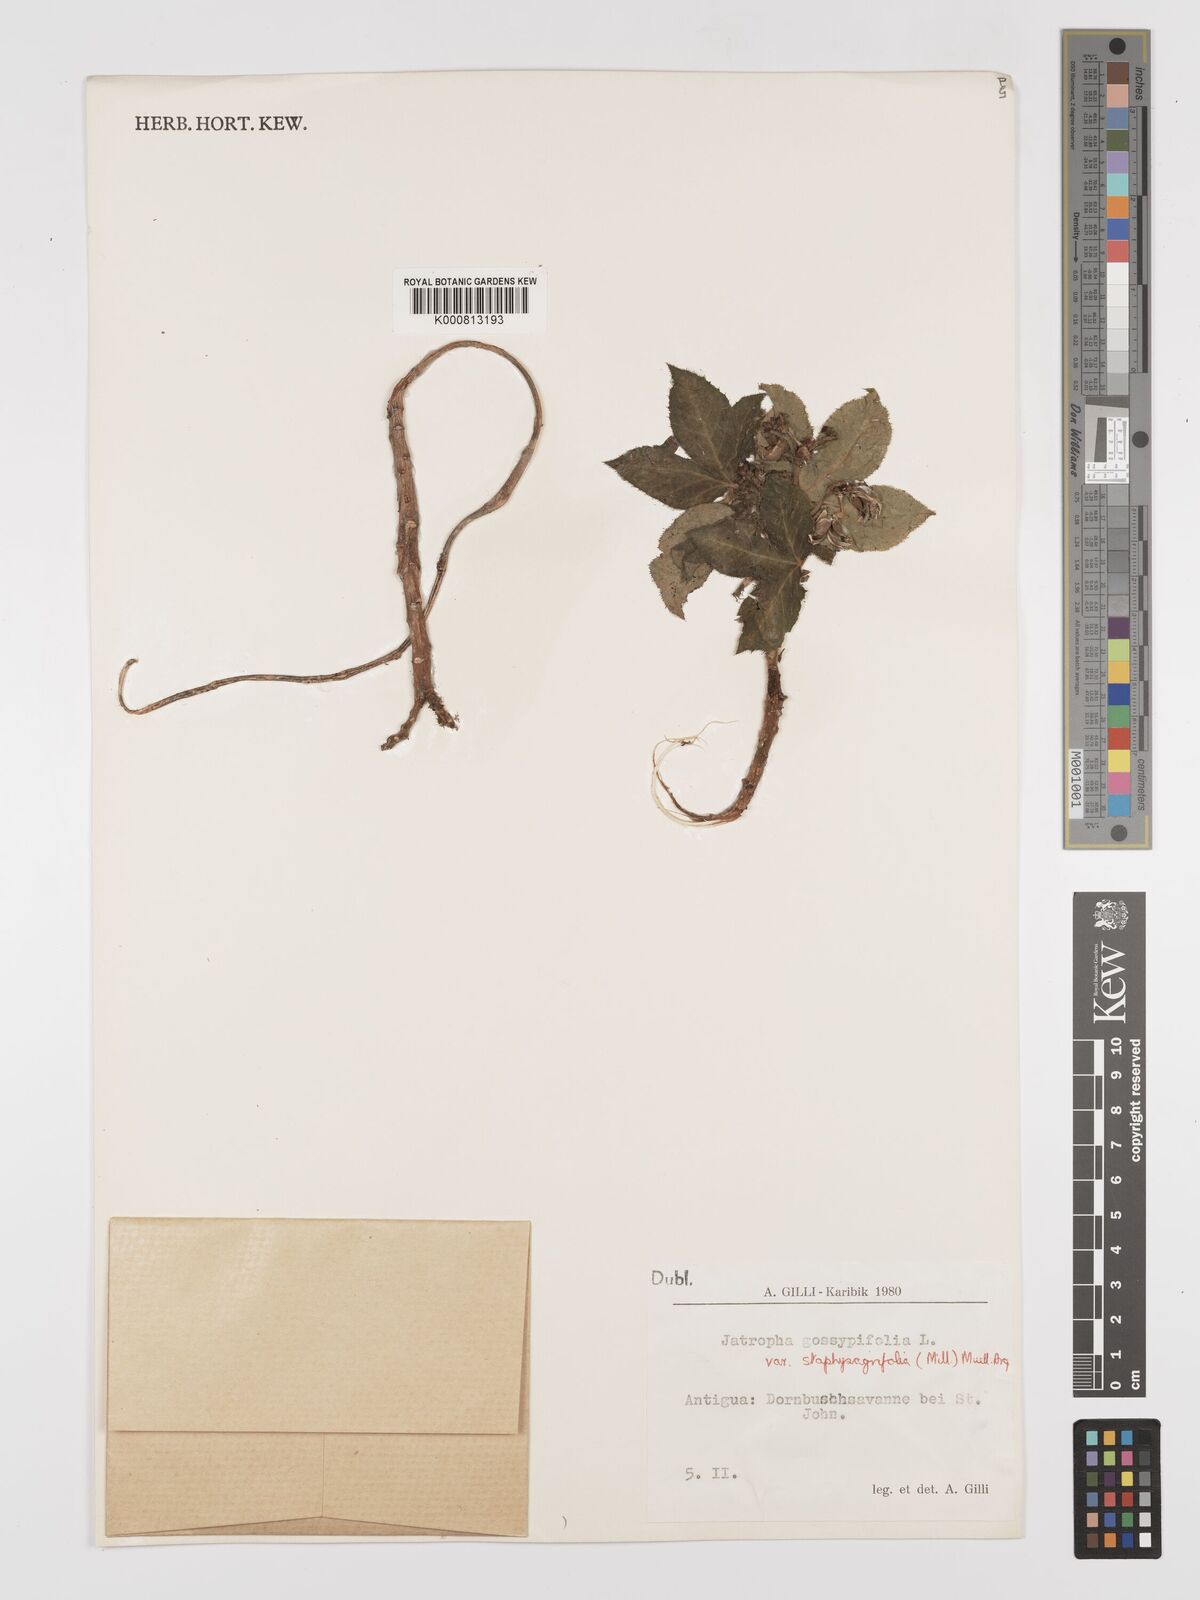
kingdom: Plantae
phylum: Tracheophyta
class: Magnoliopsida
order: Malpighiales
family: Euphorbiaceae
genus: Jatropha
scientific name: Jatropha gossypiifolia
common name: Bellyache bush
